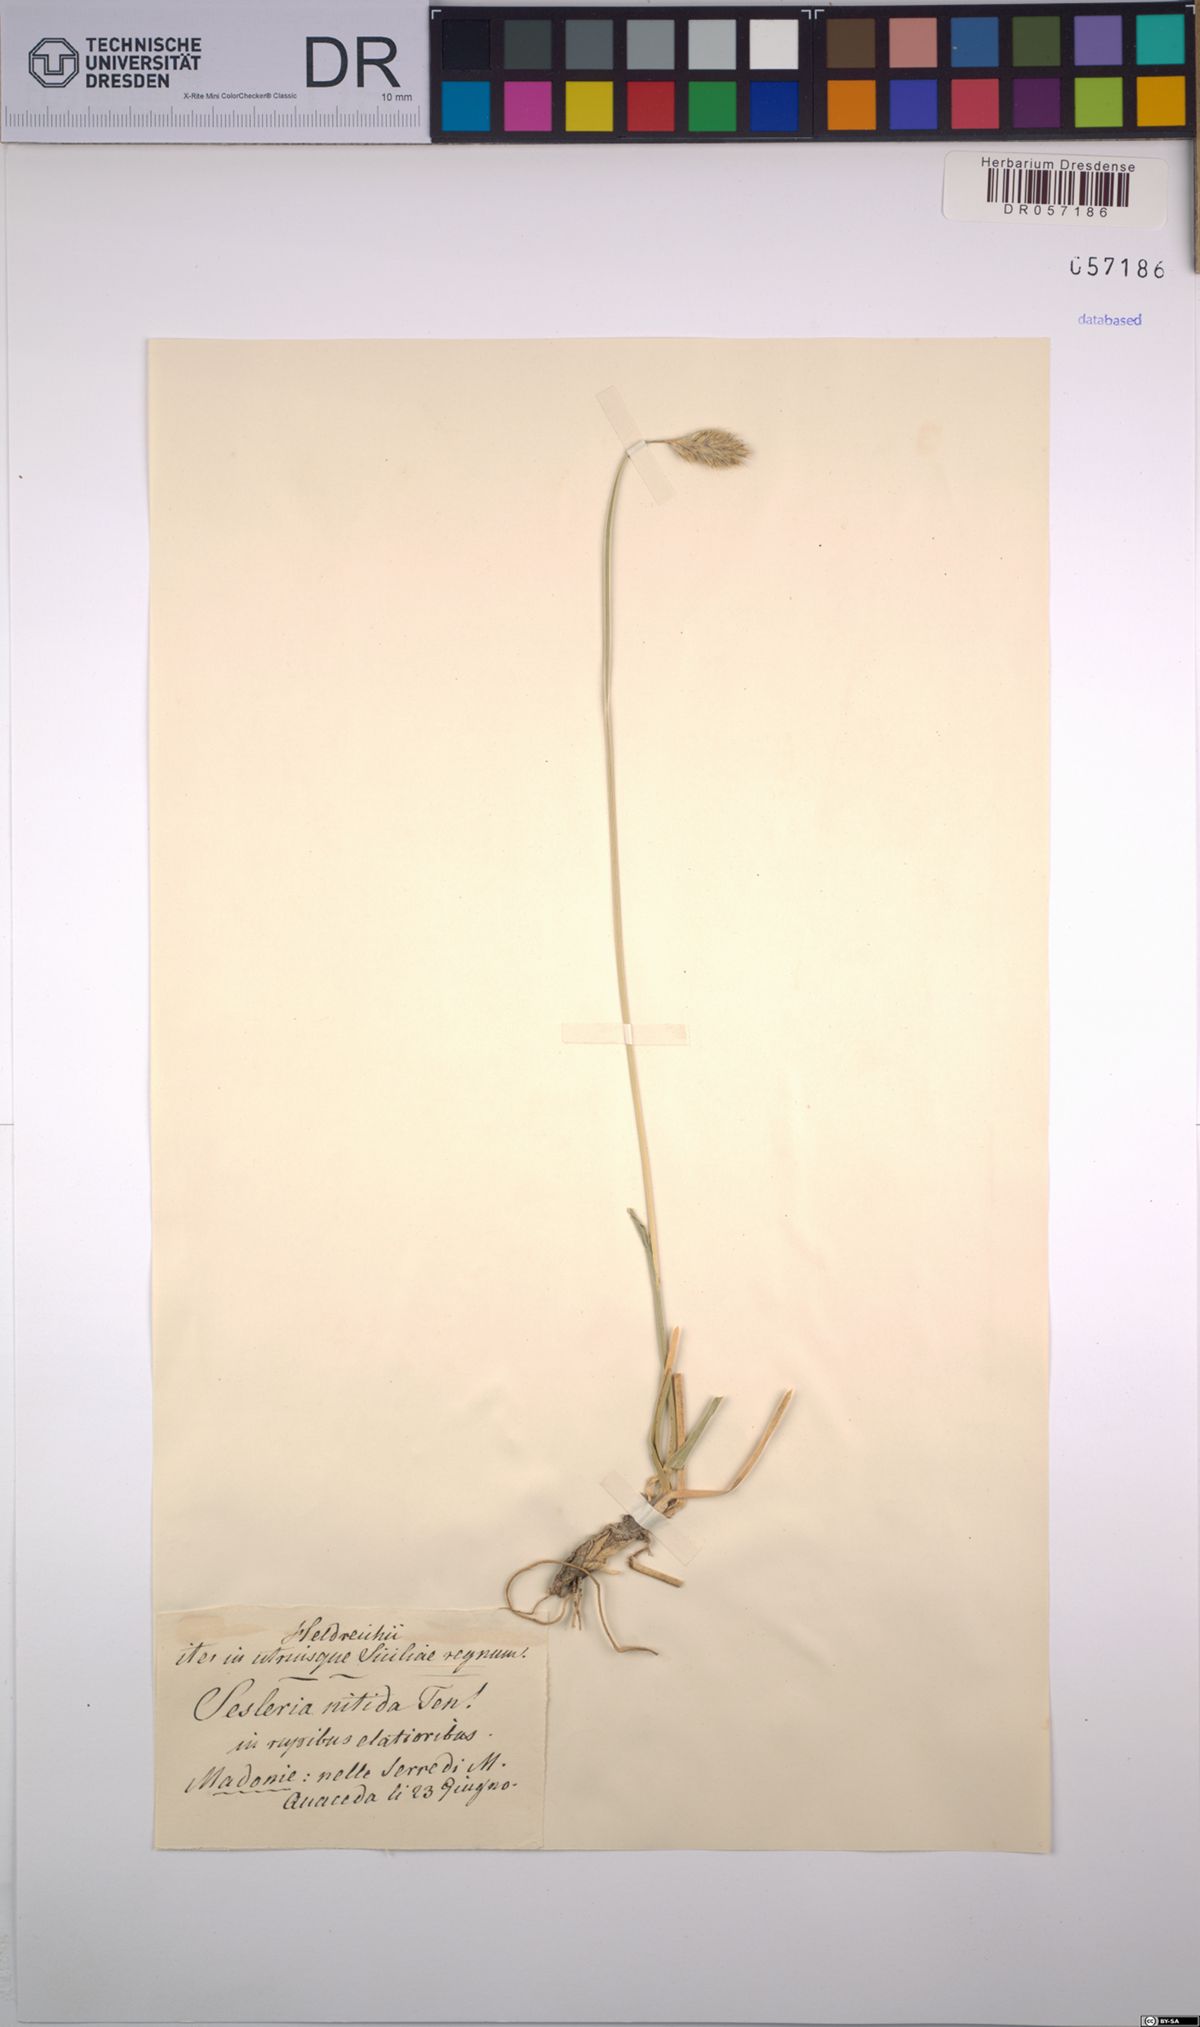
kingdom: Plantae
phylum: Tracheophyta
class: Liliopsida
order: Poales
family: Poaceae
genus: Sesleria
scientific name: Sesleria nitida
